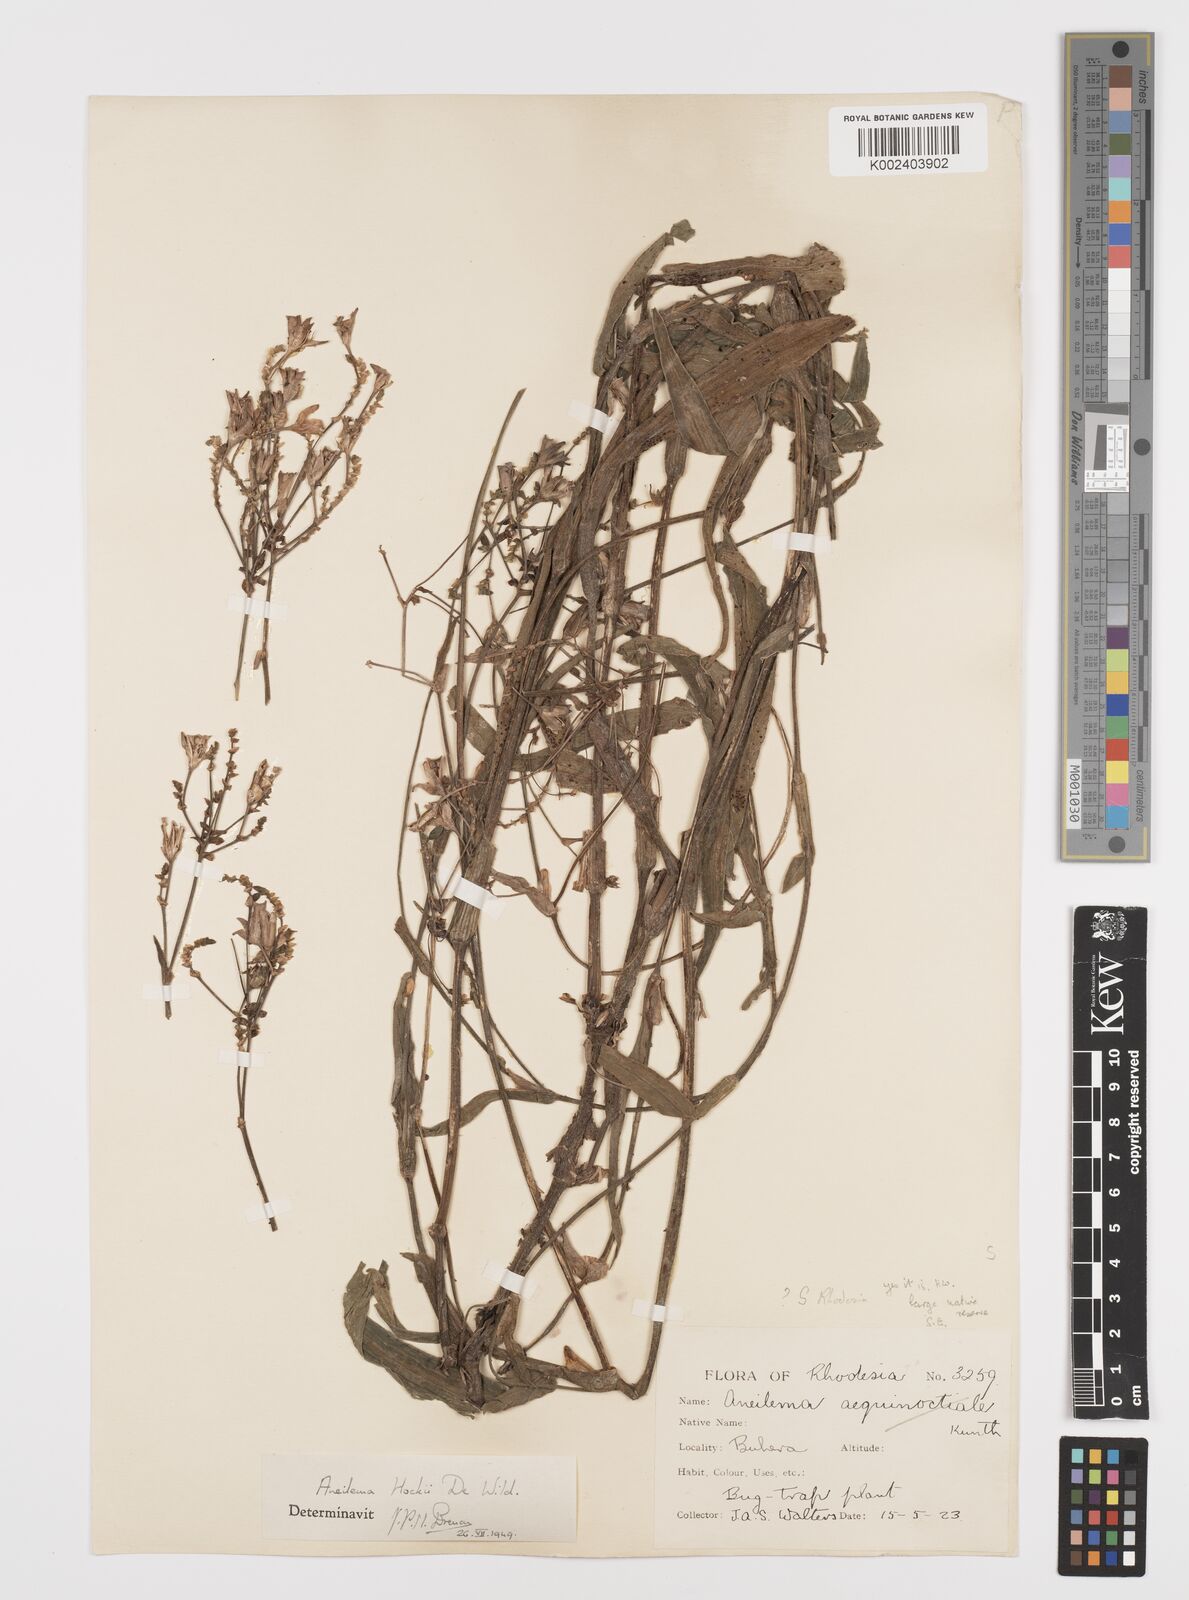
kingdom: Plantae
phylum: Tracheophyta
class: Liliopsida
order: Commelinales
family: Commelinaceae
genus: Aneilema
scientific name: Aneilema hockii
